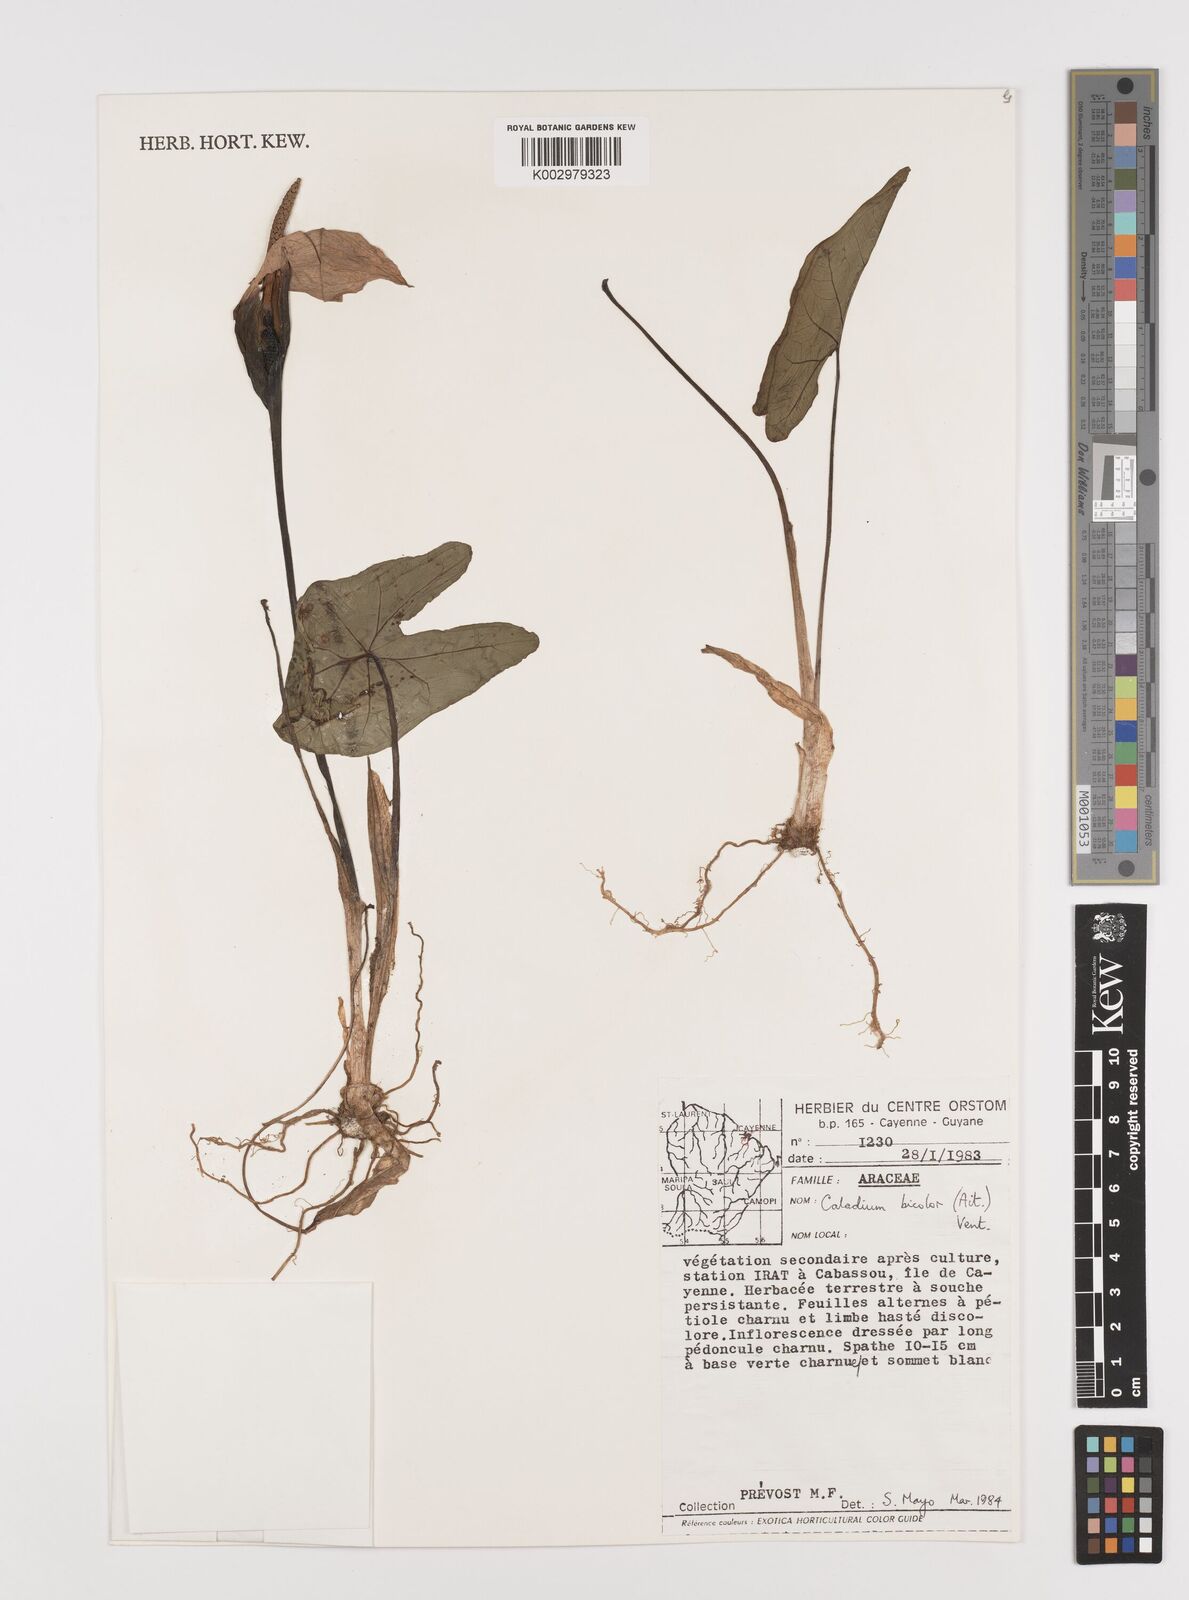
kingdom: Plantae
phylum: Tracheophyta
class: Liliopsida
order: Alismatales
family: Araceae
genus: Caladium
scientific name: Caladium bicolor
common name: Artist's pallet
